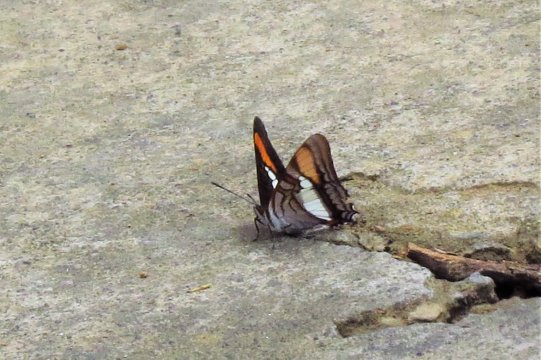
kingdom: Animalia
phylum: Arthropoda
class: Insecta
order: Lepidoptera
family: Nymphalidae
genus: Limenitis
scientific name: Limenitis diocles
